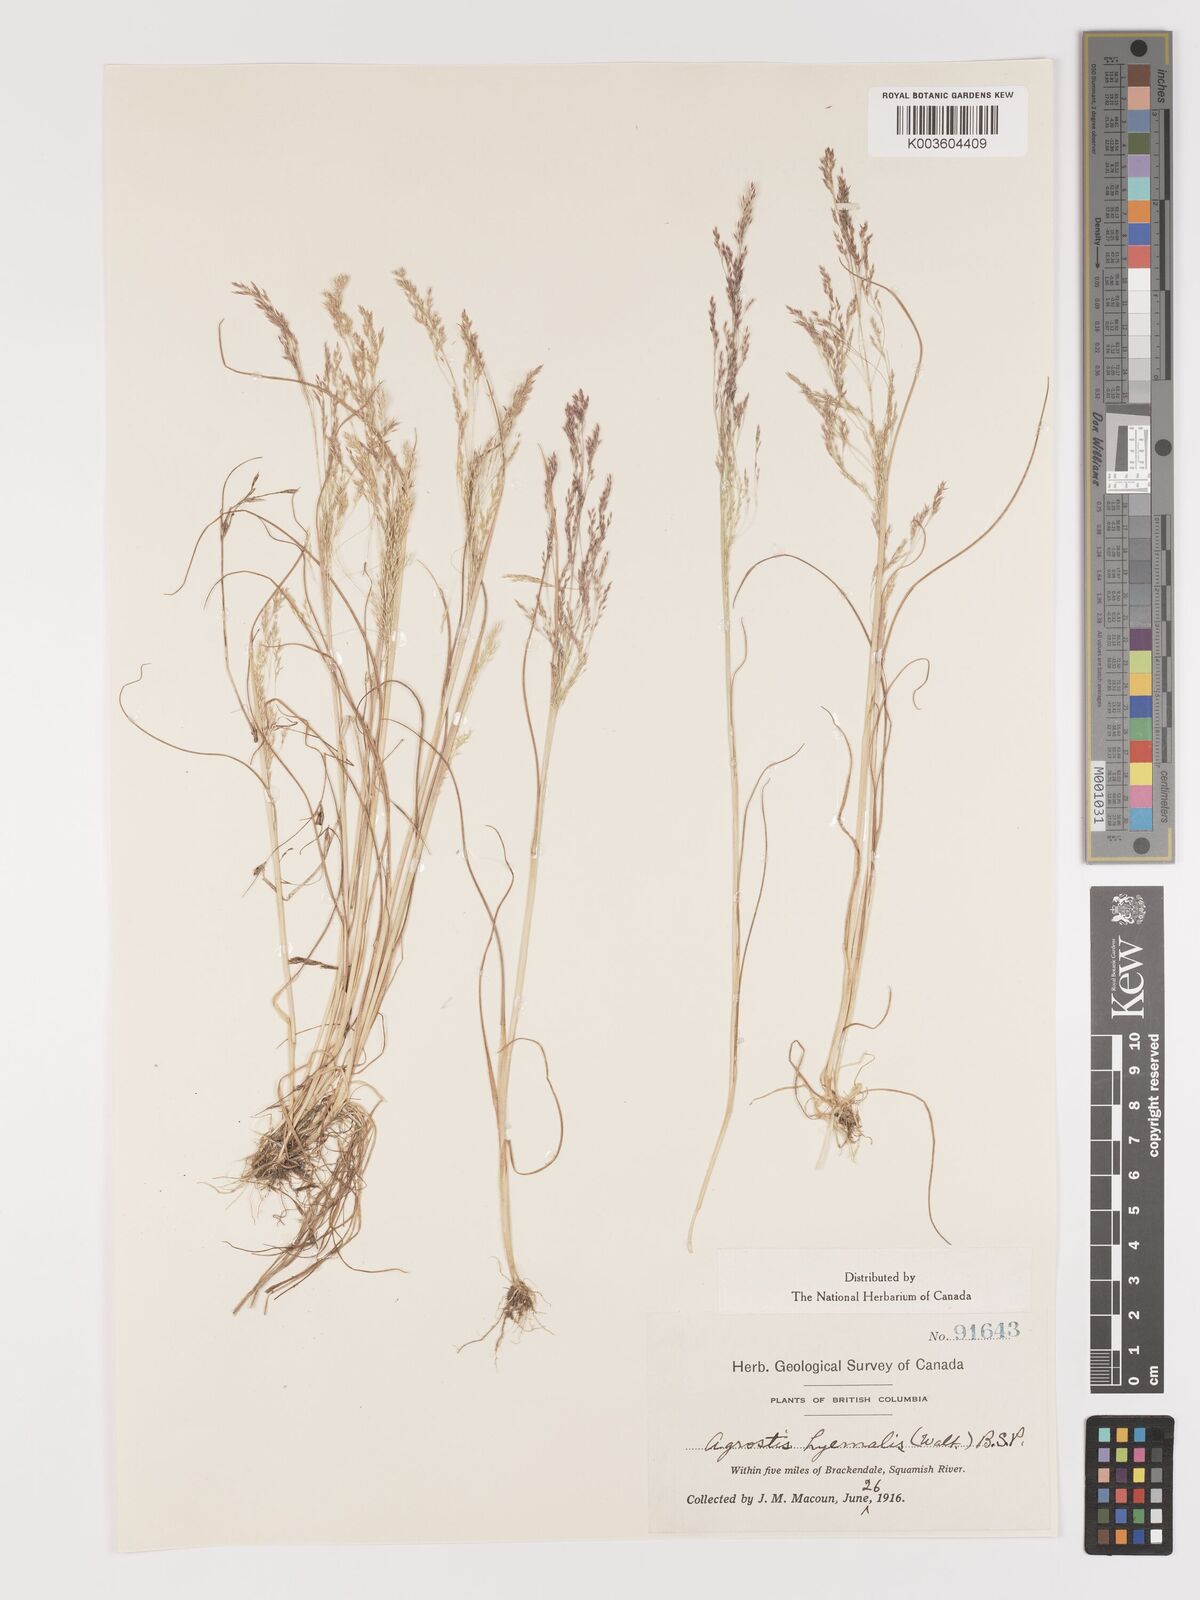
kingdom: Plantae
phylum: Tracheophyta
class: Liliopsida
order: Poales
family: Poaceae
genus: Agrostis
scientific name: Agrostis hyemalis
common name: Small bent
